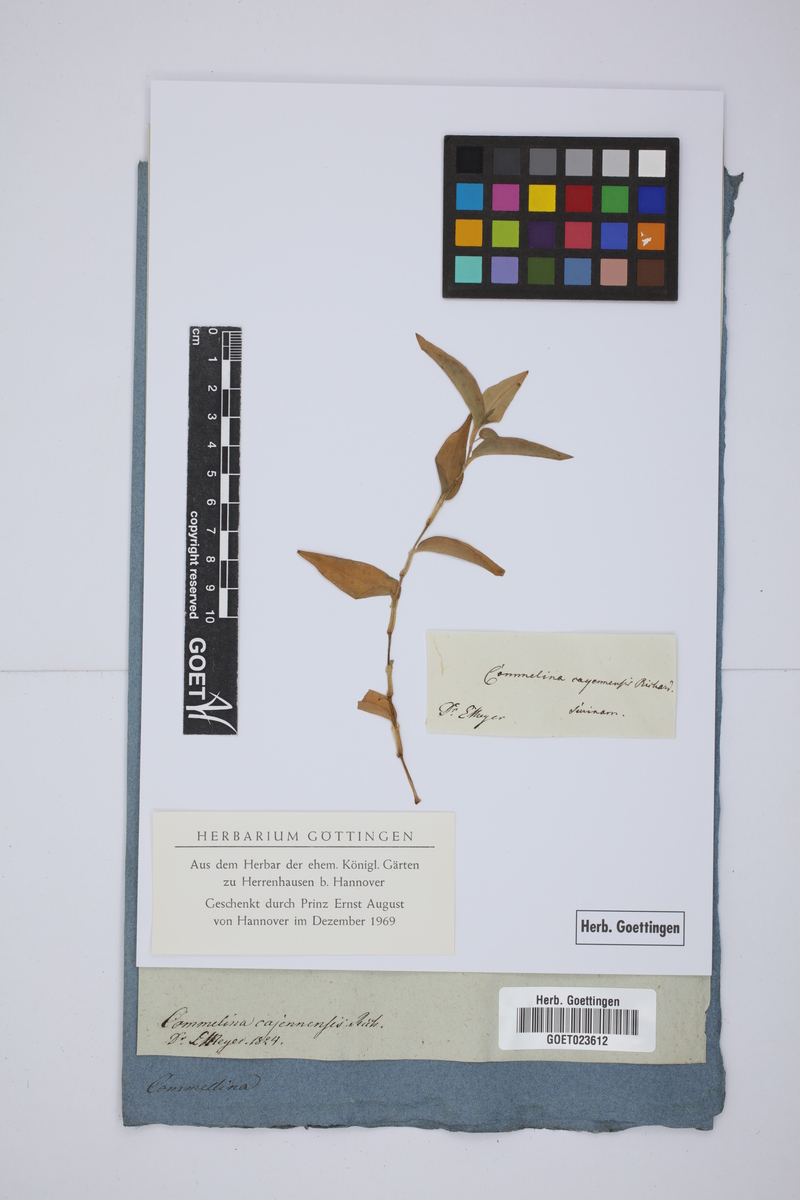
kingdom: Plantae
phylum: Tracheophyta
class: Liliopsida
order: Commelinales
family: Commelinaceae
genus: Commelina
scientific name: Commelina diffusa
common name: Climbing dayflower
